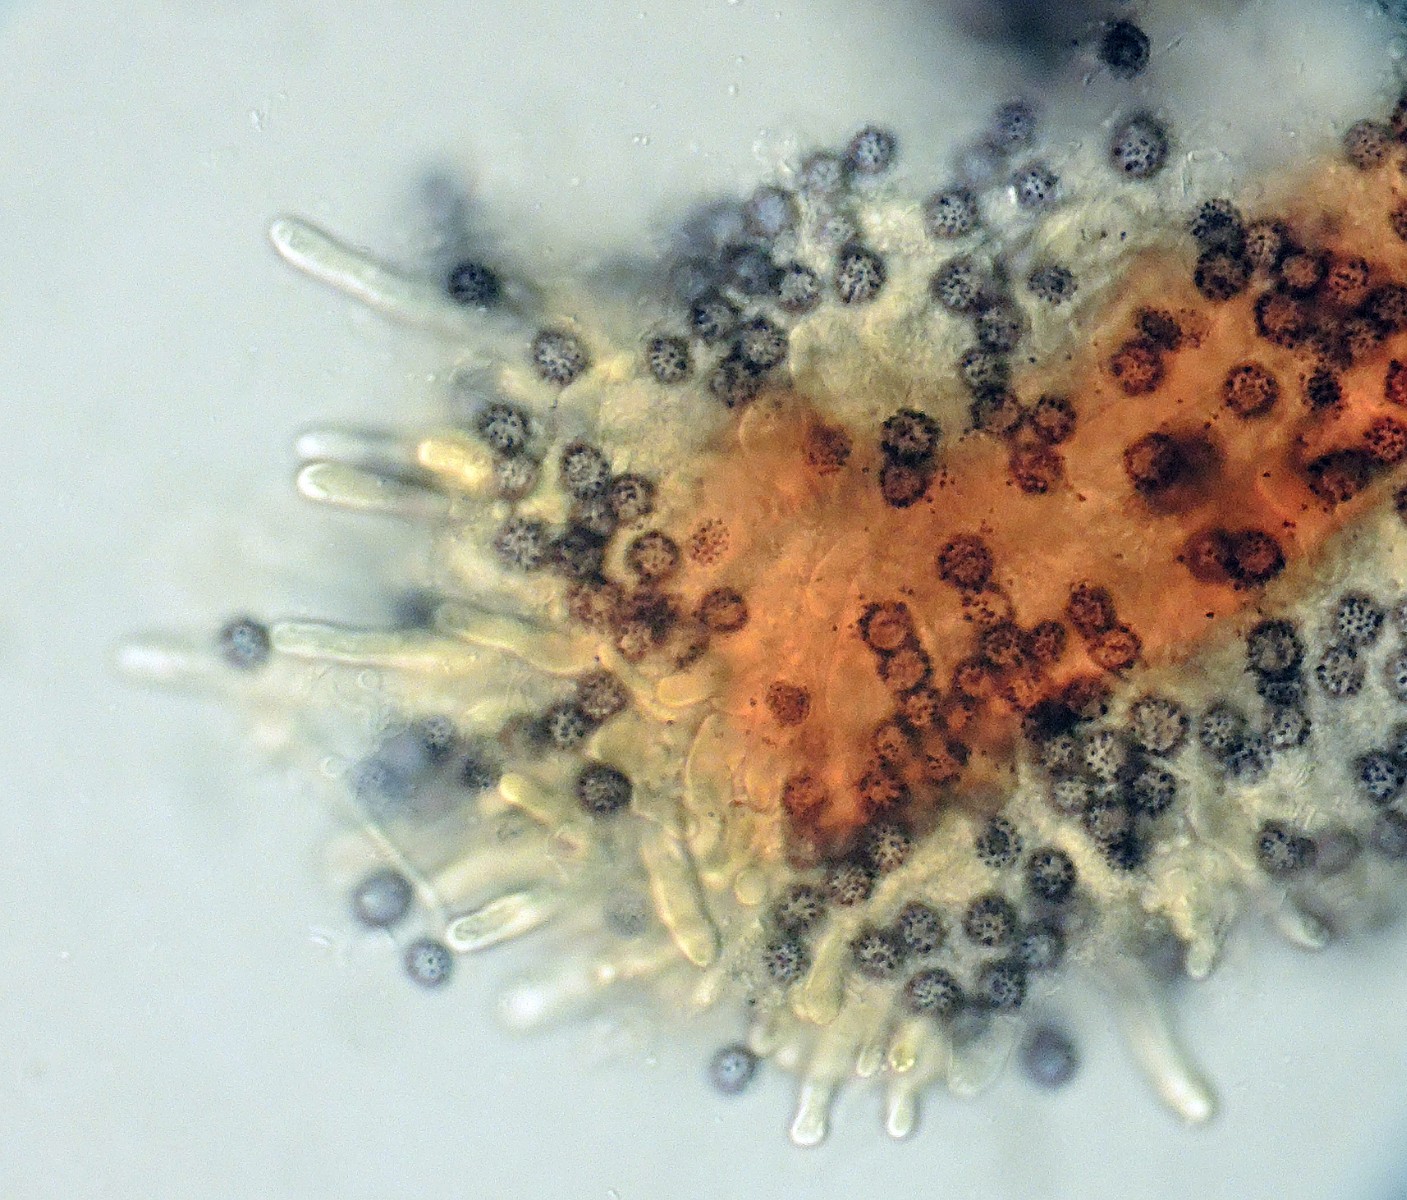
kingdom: Fungi
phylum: Basidiomycota
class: Agaricomycetes
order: Russulales
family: Russulaceae
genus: Boidinia
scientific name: Boidinia furfuracea
